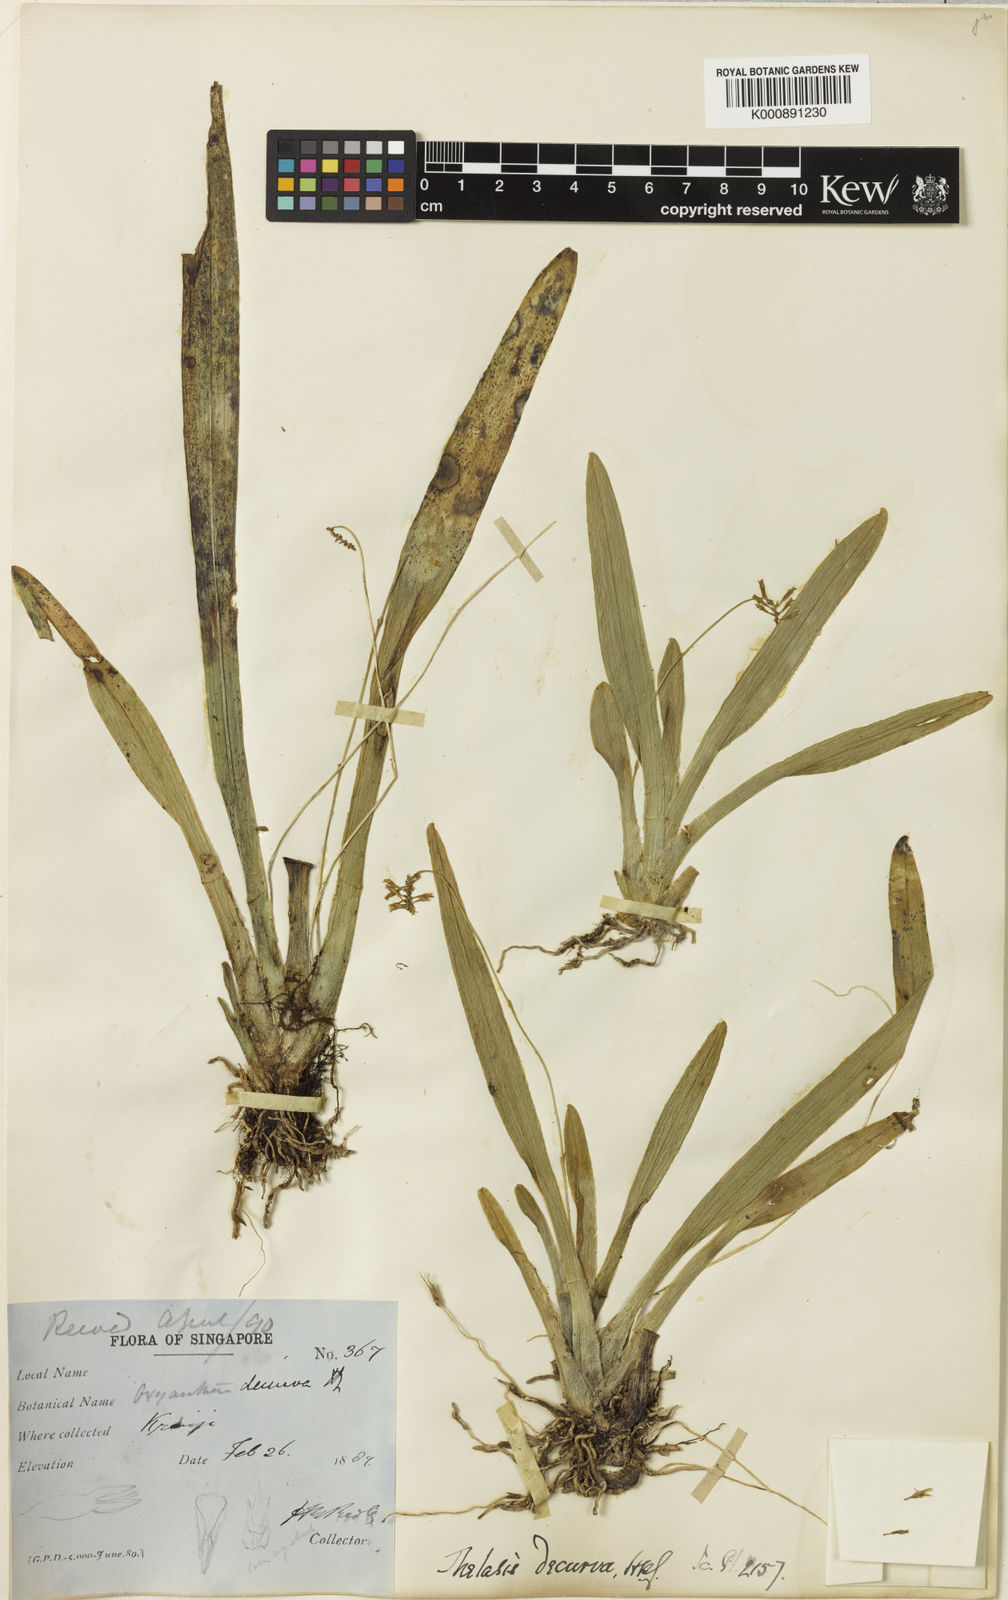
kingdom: Plantae
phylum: Tracheophyta
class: Liliopsida
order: Asparagales
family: Orchidaceae
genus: Thelasis
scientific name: Thelasis micrantha
